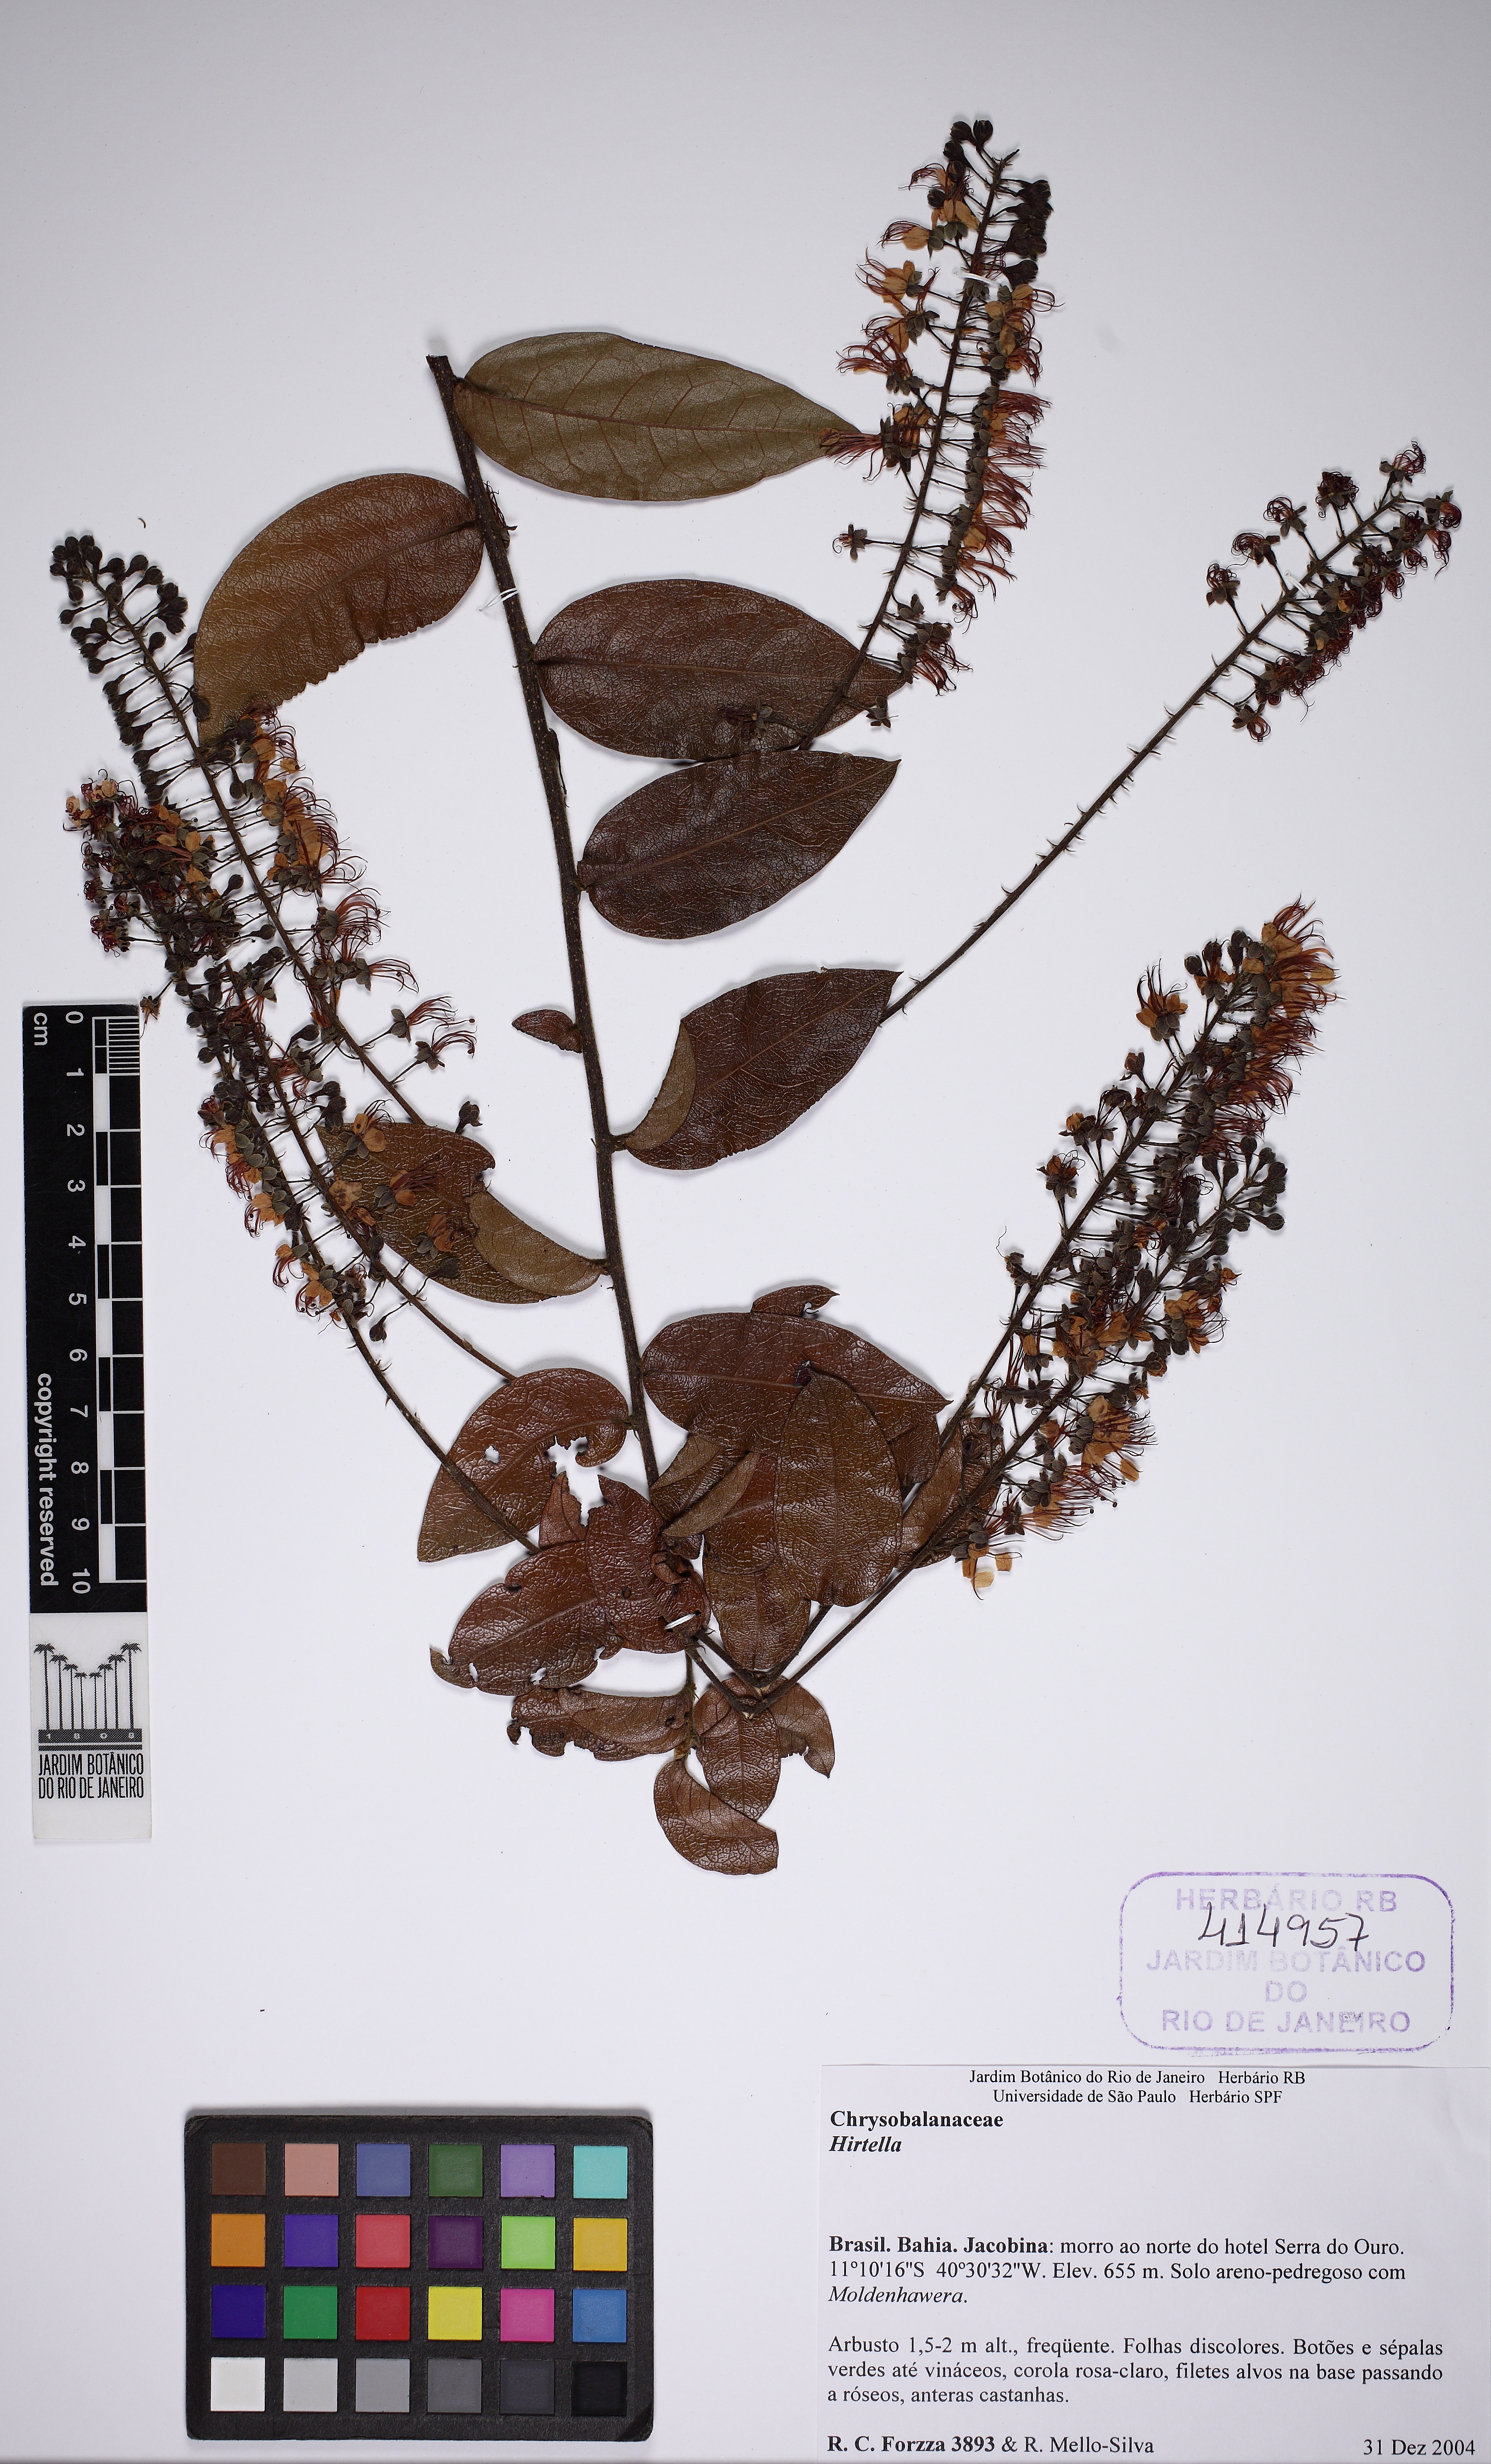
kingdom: Plantae
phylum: Tracheophyta
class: Magnoliopsida
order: Malpighiales
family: Chrysobalanaceae
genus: Hirtella
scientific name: Hirtella racemosa
